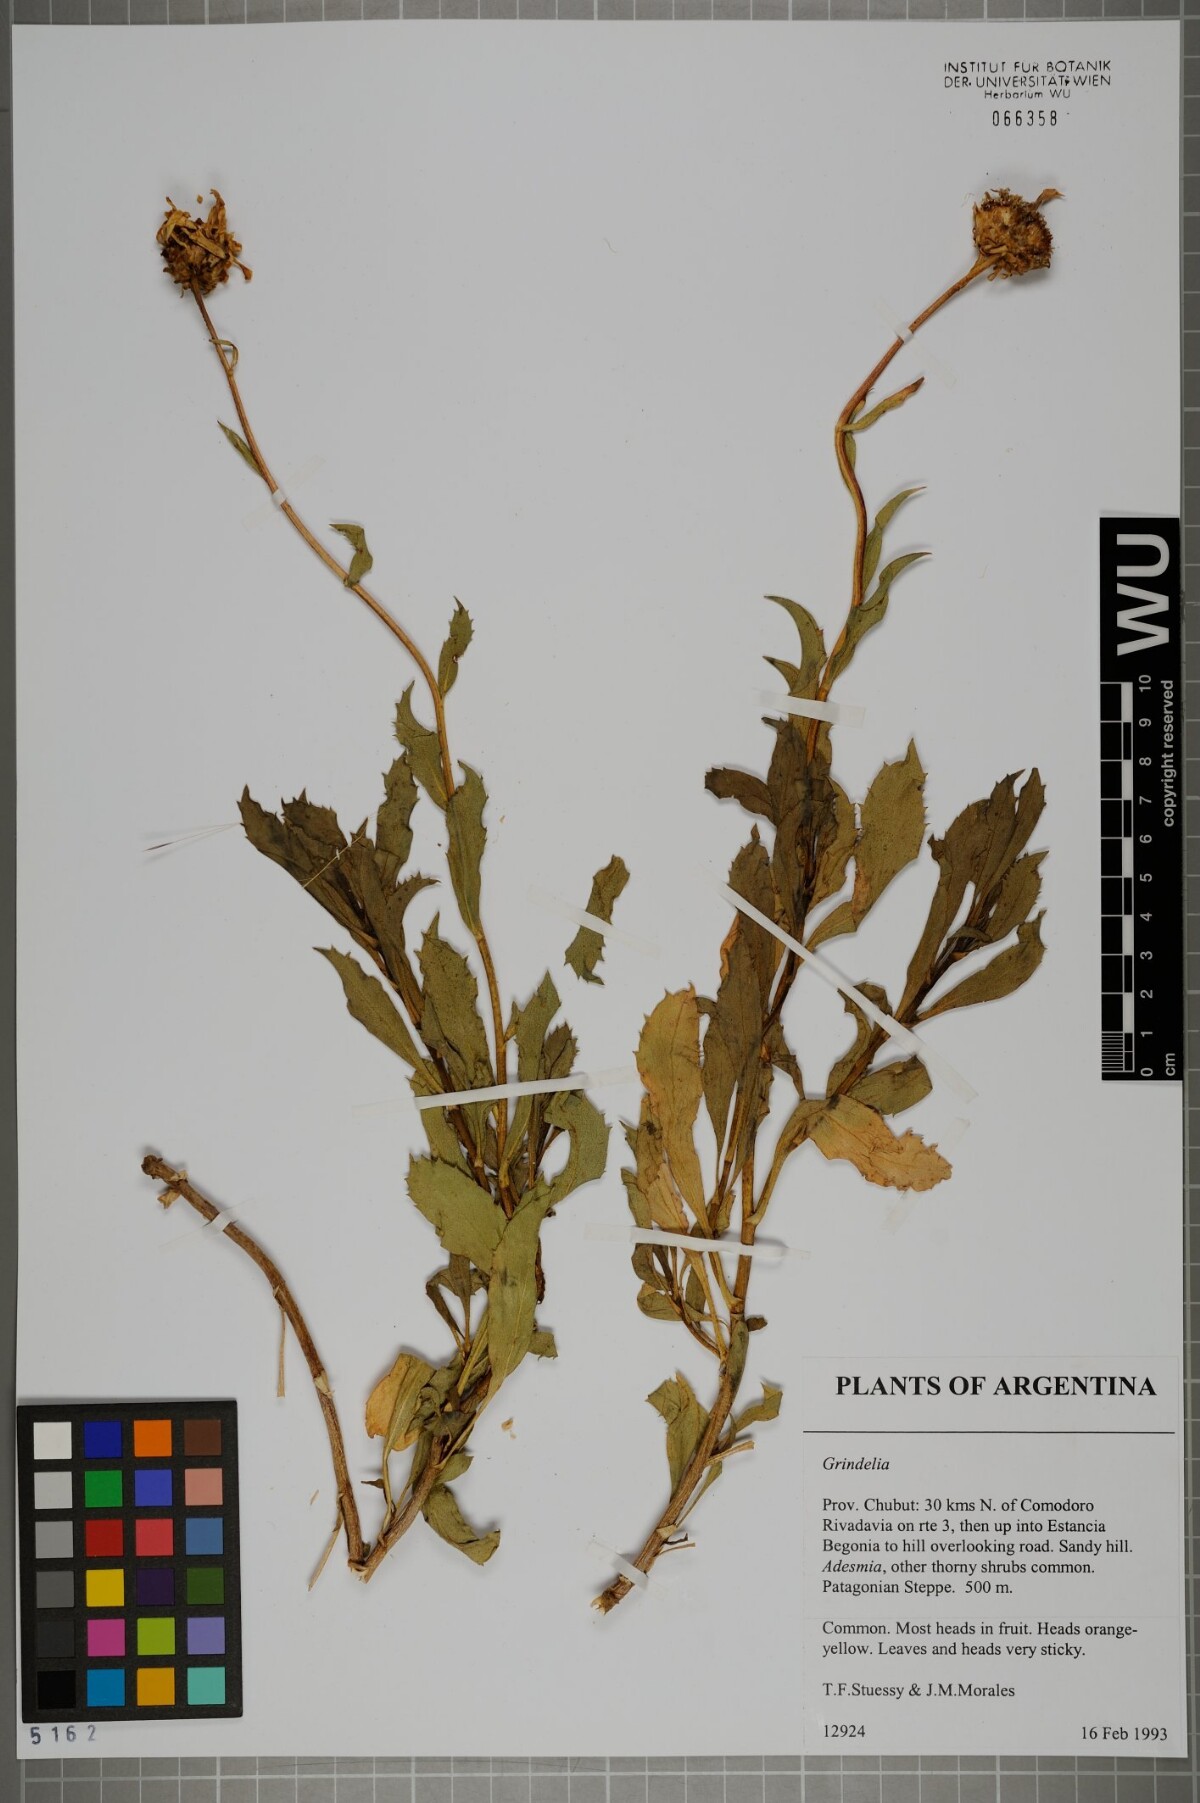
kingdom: Plantae
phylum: Tracheophyta
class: Magnoliopsida
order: Asterales
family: Asteraceae
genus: Grindelia
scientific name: Grindelia
